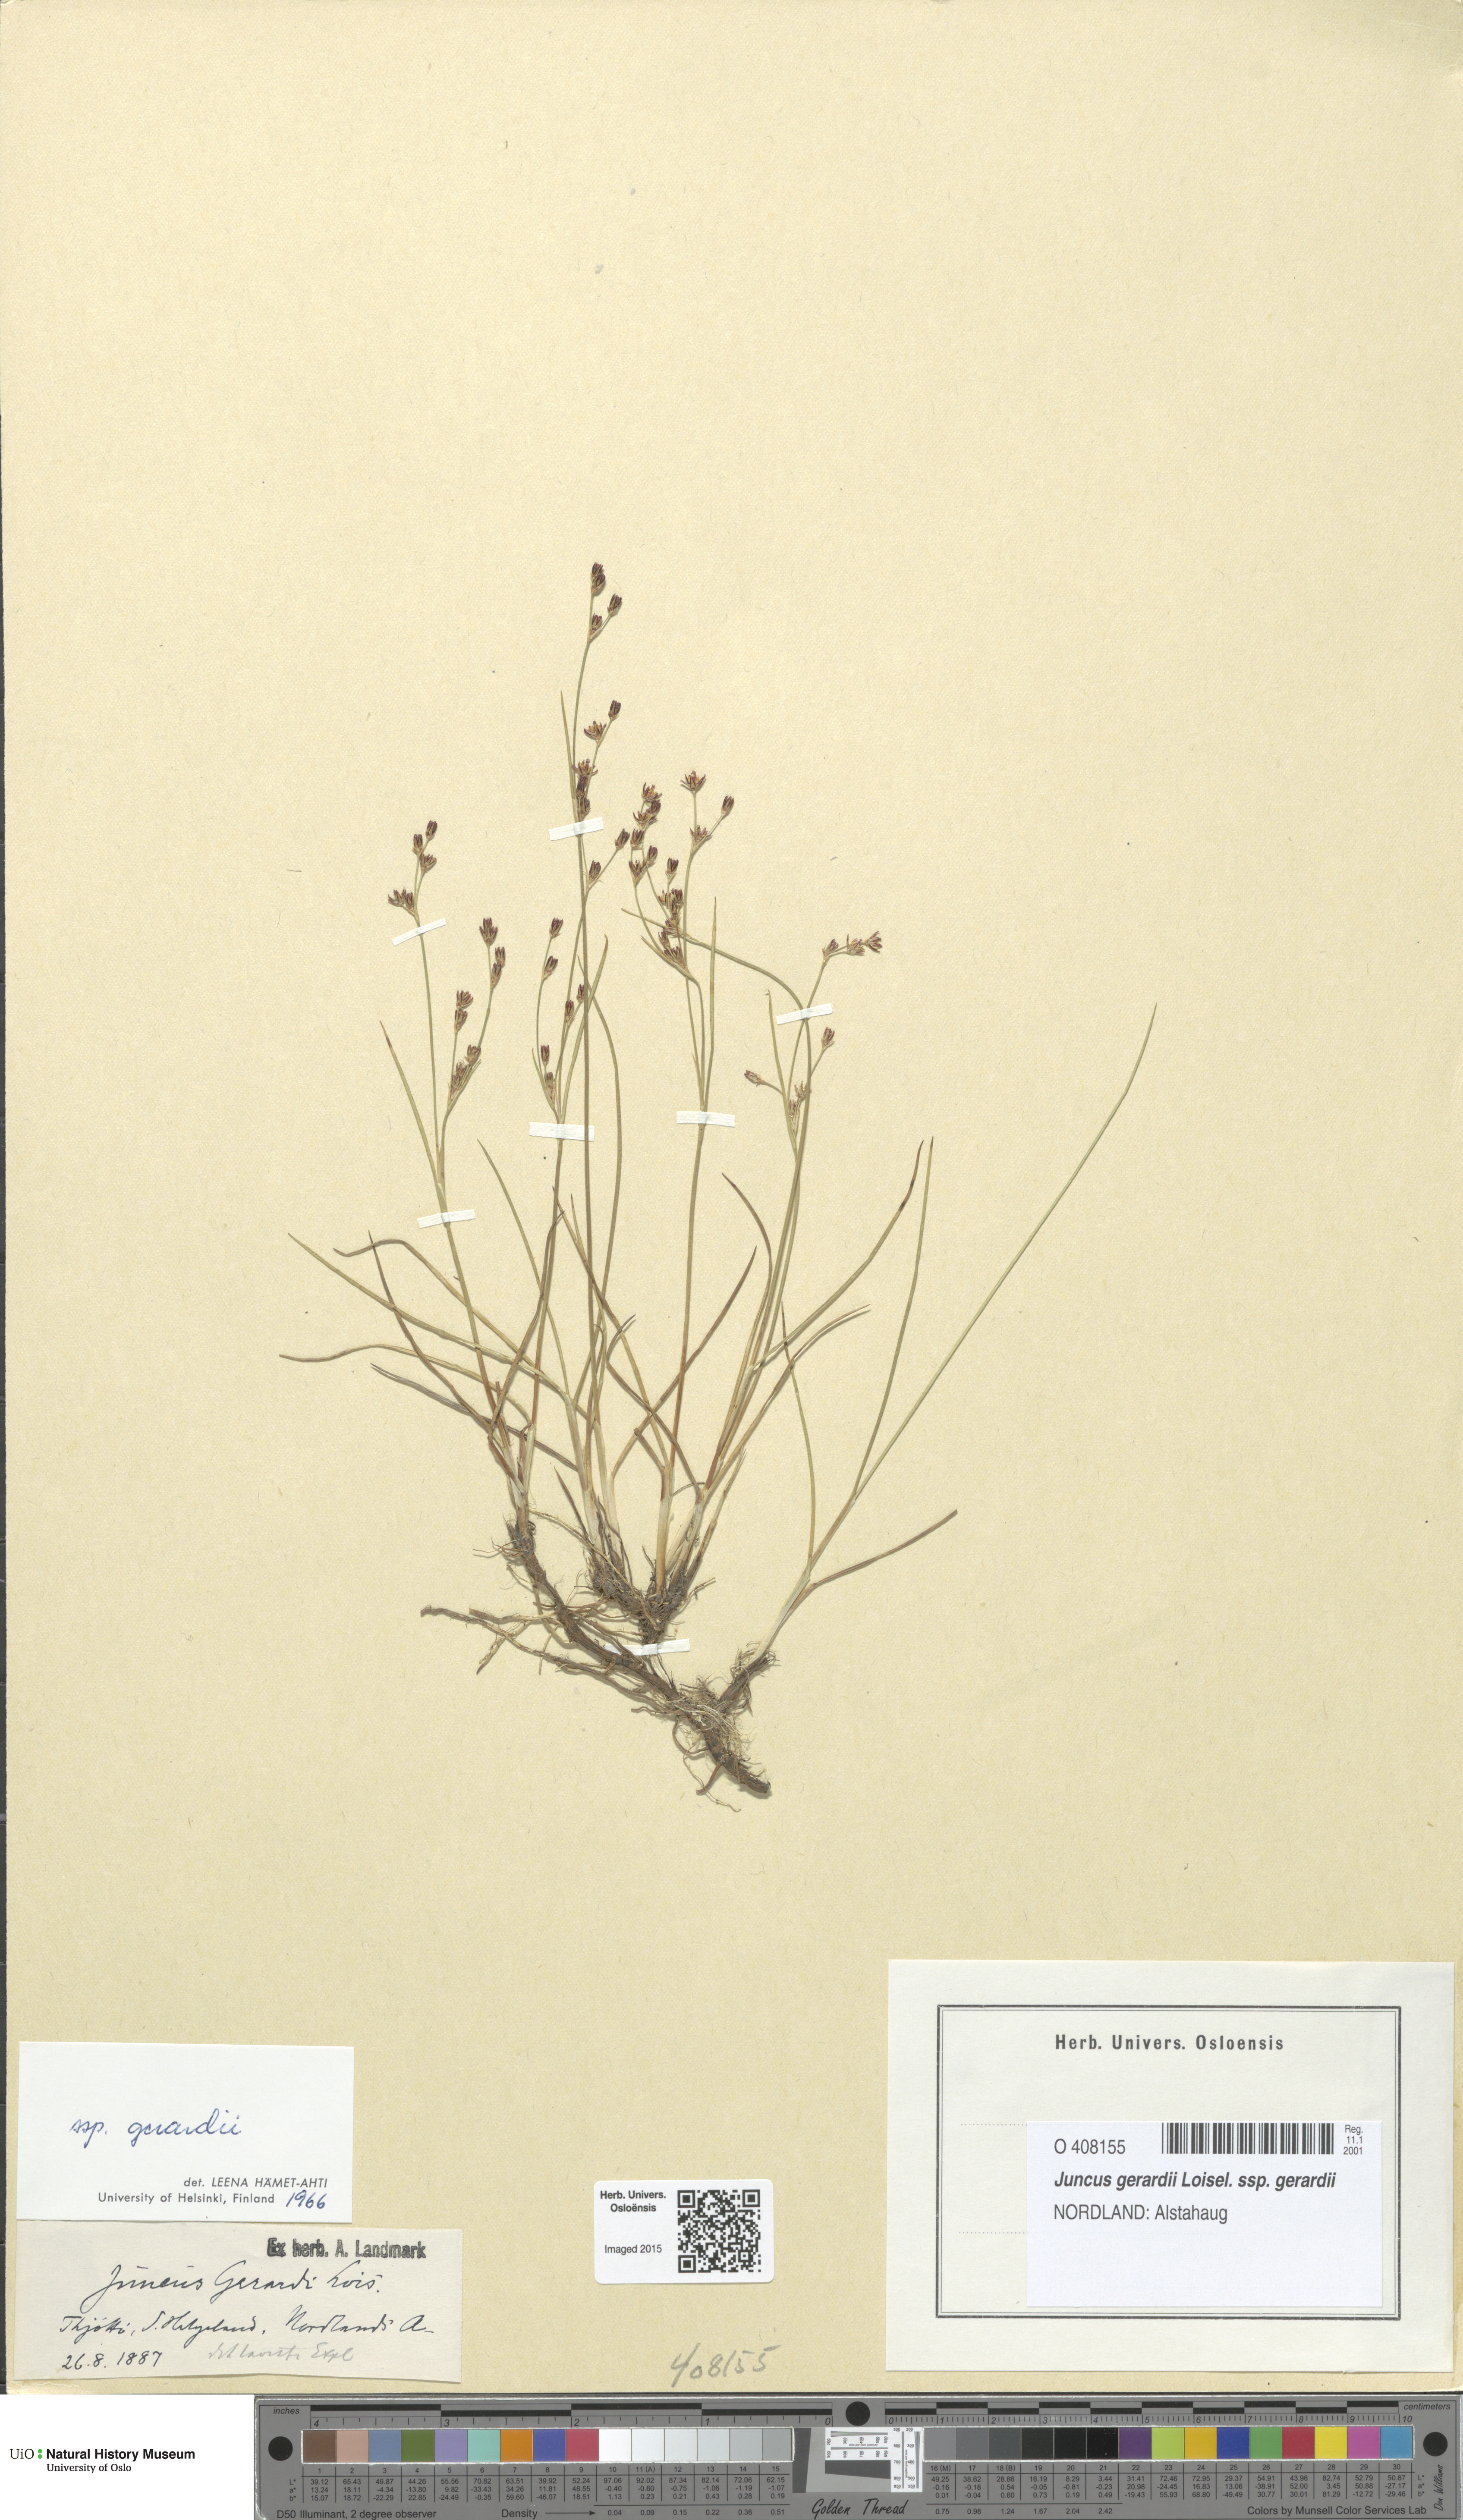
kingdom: Plantae
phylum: Tracheophyta
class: Liliopsida
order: Poales
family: Juncaceae
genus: Juncus
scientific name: Juncus gerardi
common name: Saltmarsh rush
